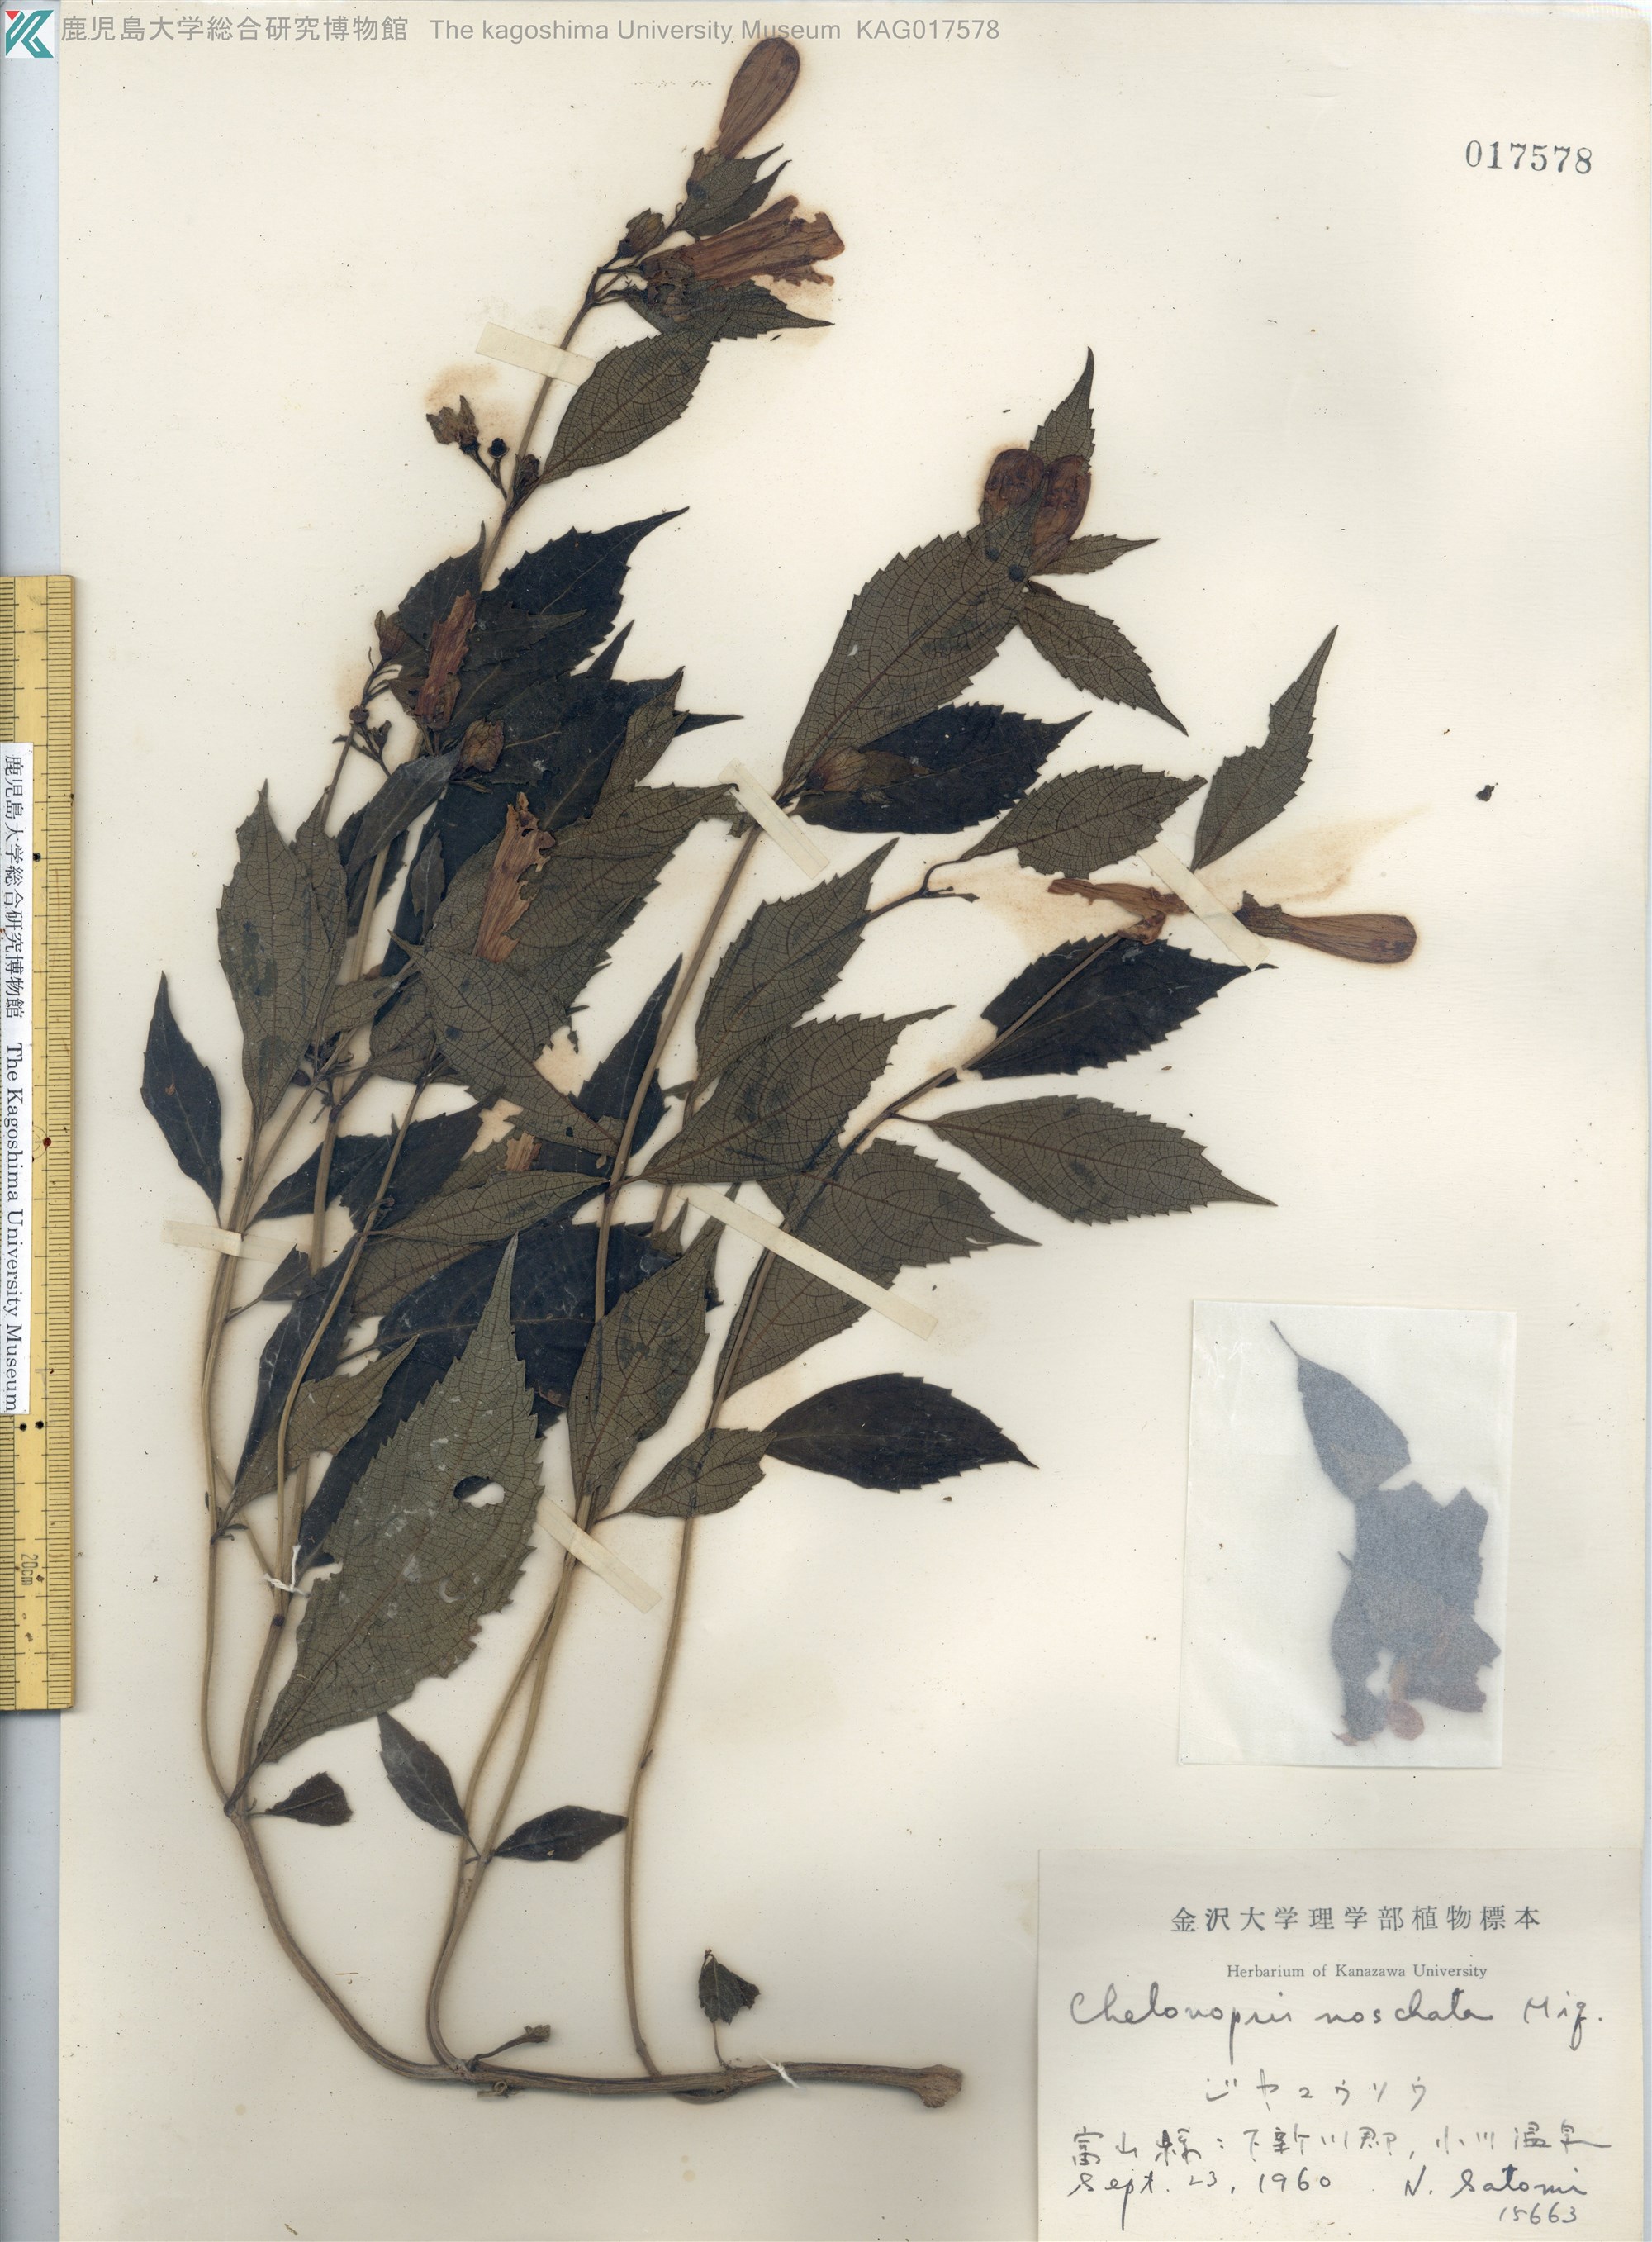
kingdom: Plantae
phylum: Tracheophyta
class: Magnoliopsida
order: Lamiales
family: Lamiaceae
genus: Chelonopsis
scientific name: Chelonopsis moschata
